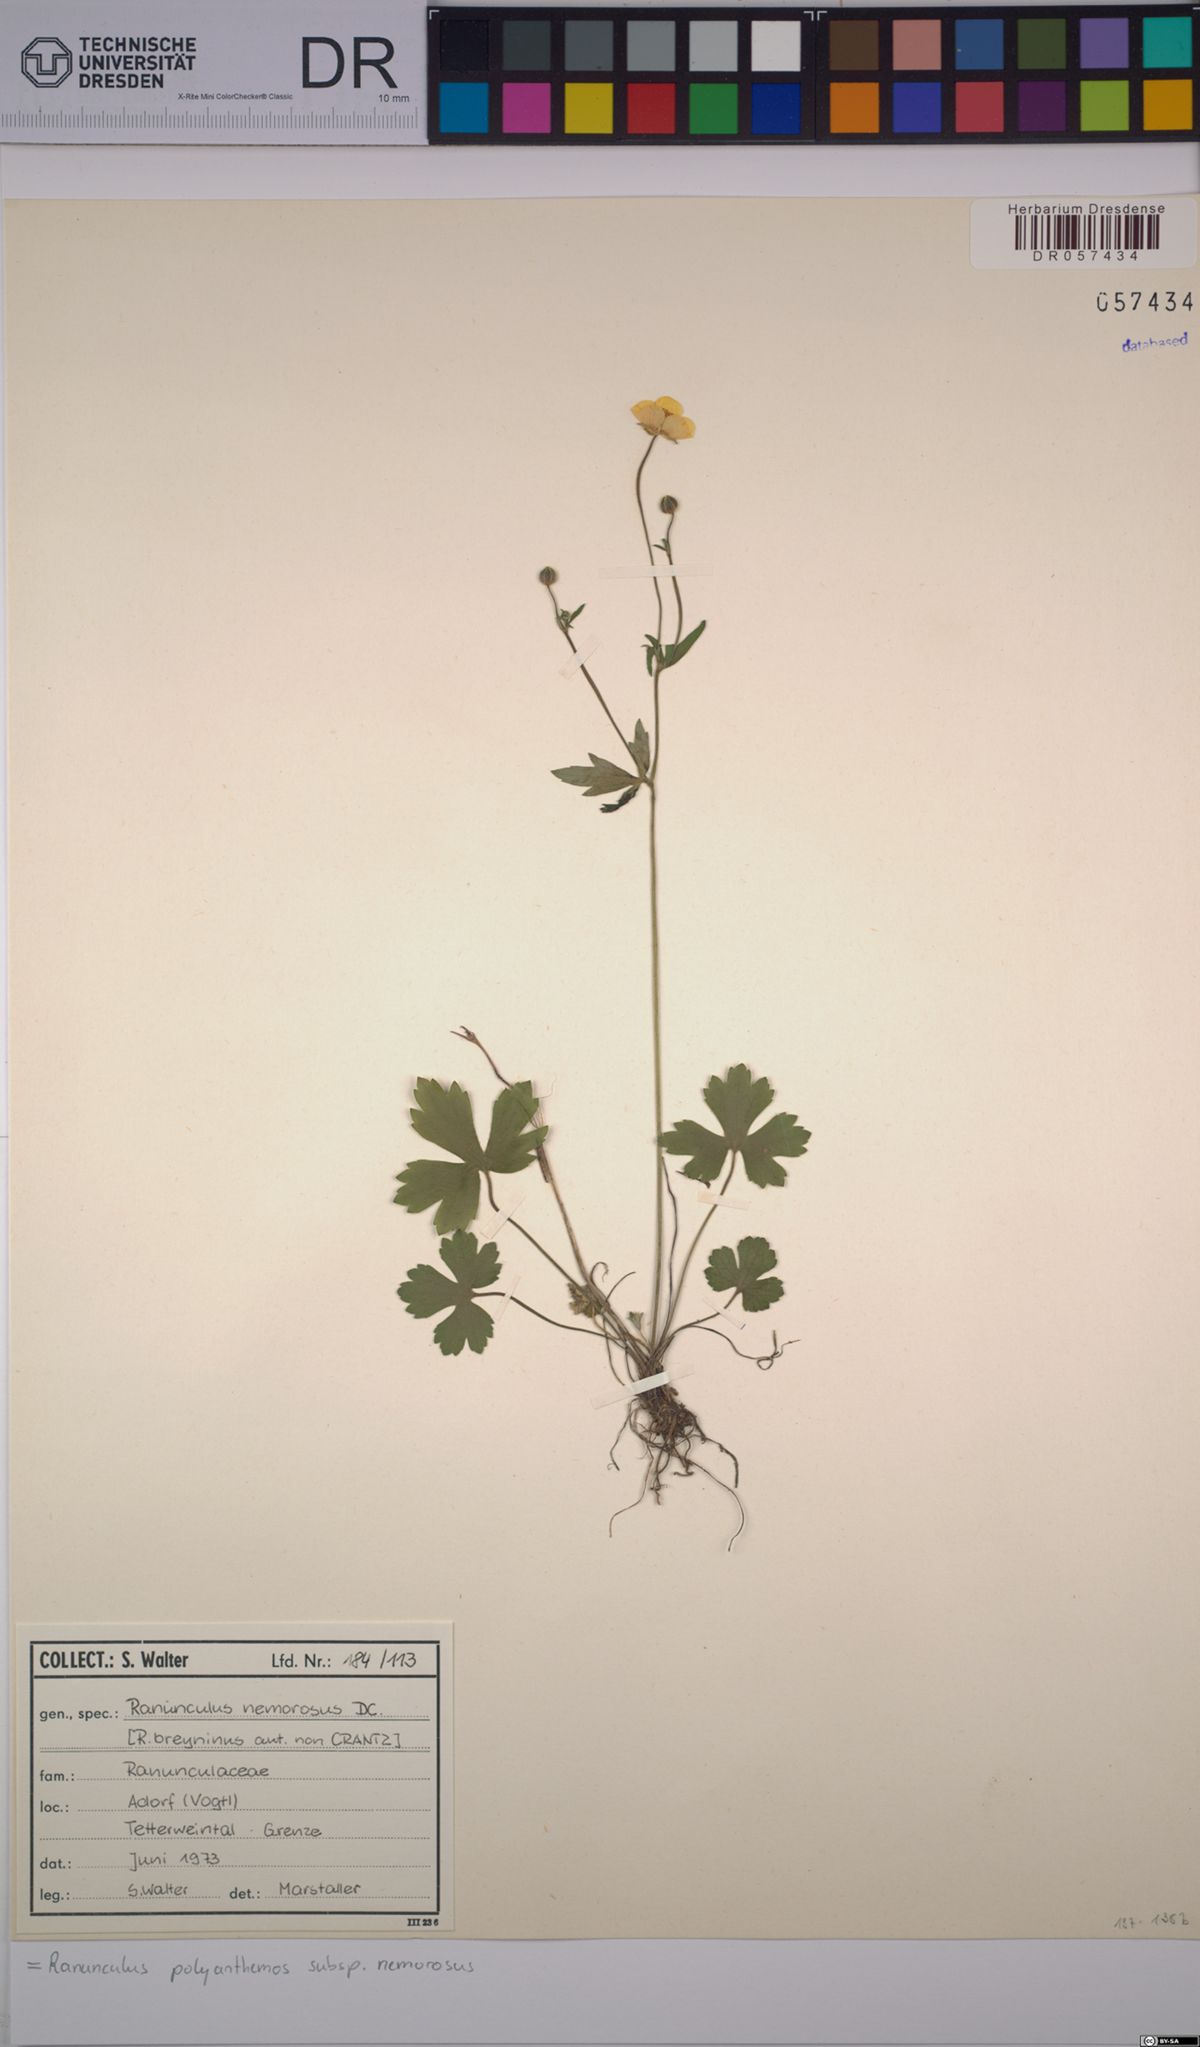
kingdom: Plantae
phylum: Tracheophyta
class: Magnoliopsida
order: Ranunculales
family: Ranunculaceae
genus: Ranunculus
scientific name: Ranunculus polyanthemos
